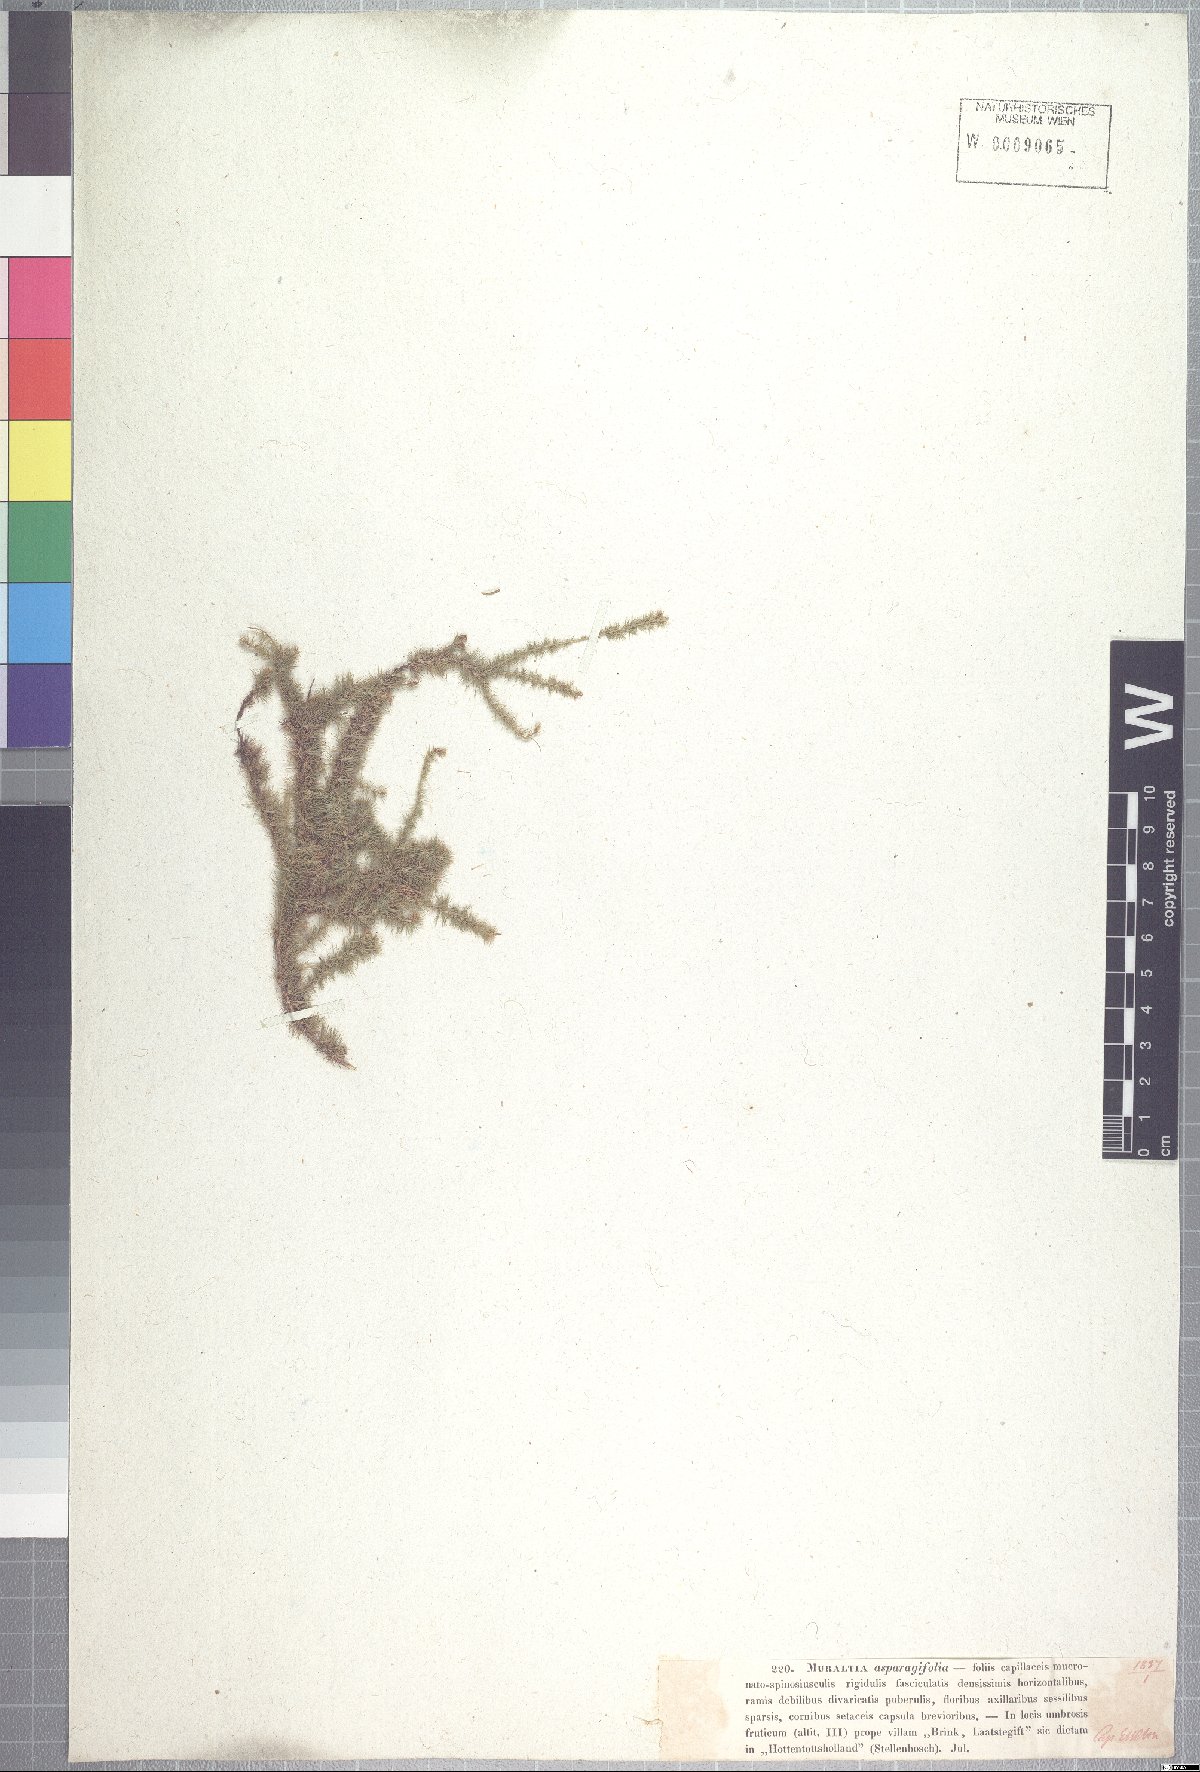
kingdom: Plantae
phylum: Tracheophyta
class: Magnoliopsida
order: Fabales
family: Polygalaceae
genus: Muraltia
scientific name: Muraltia asparagifolia
